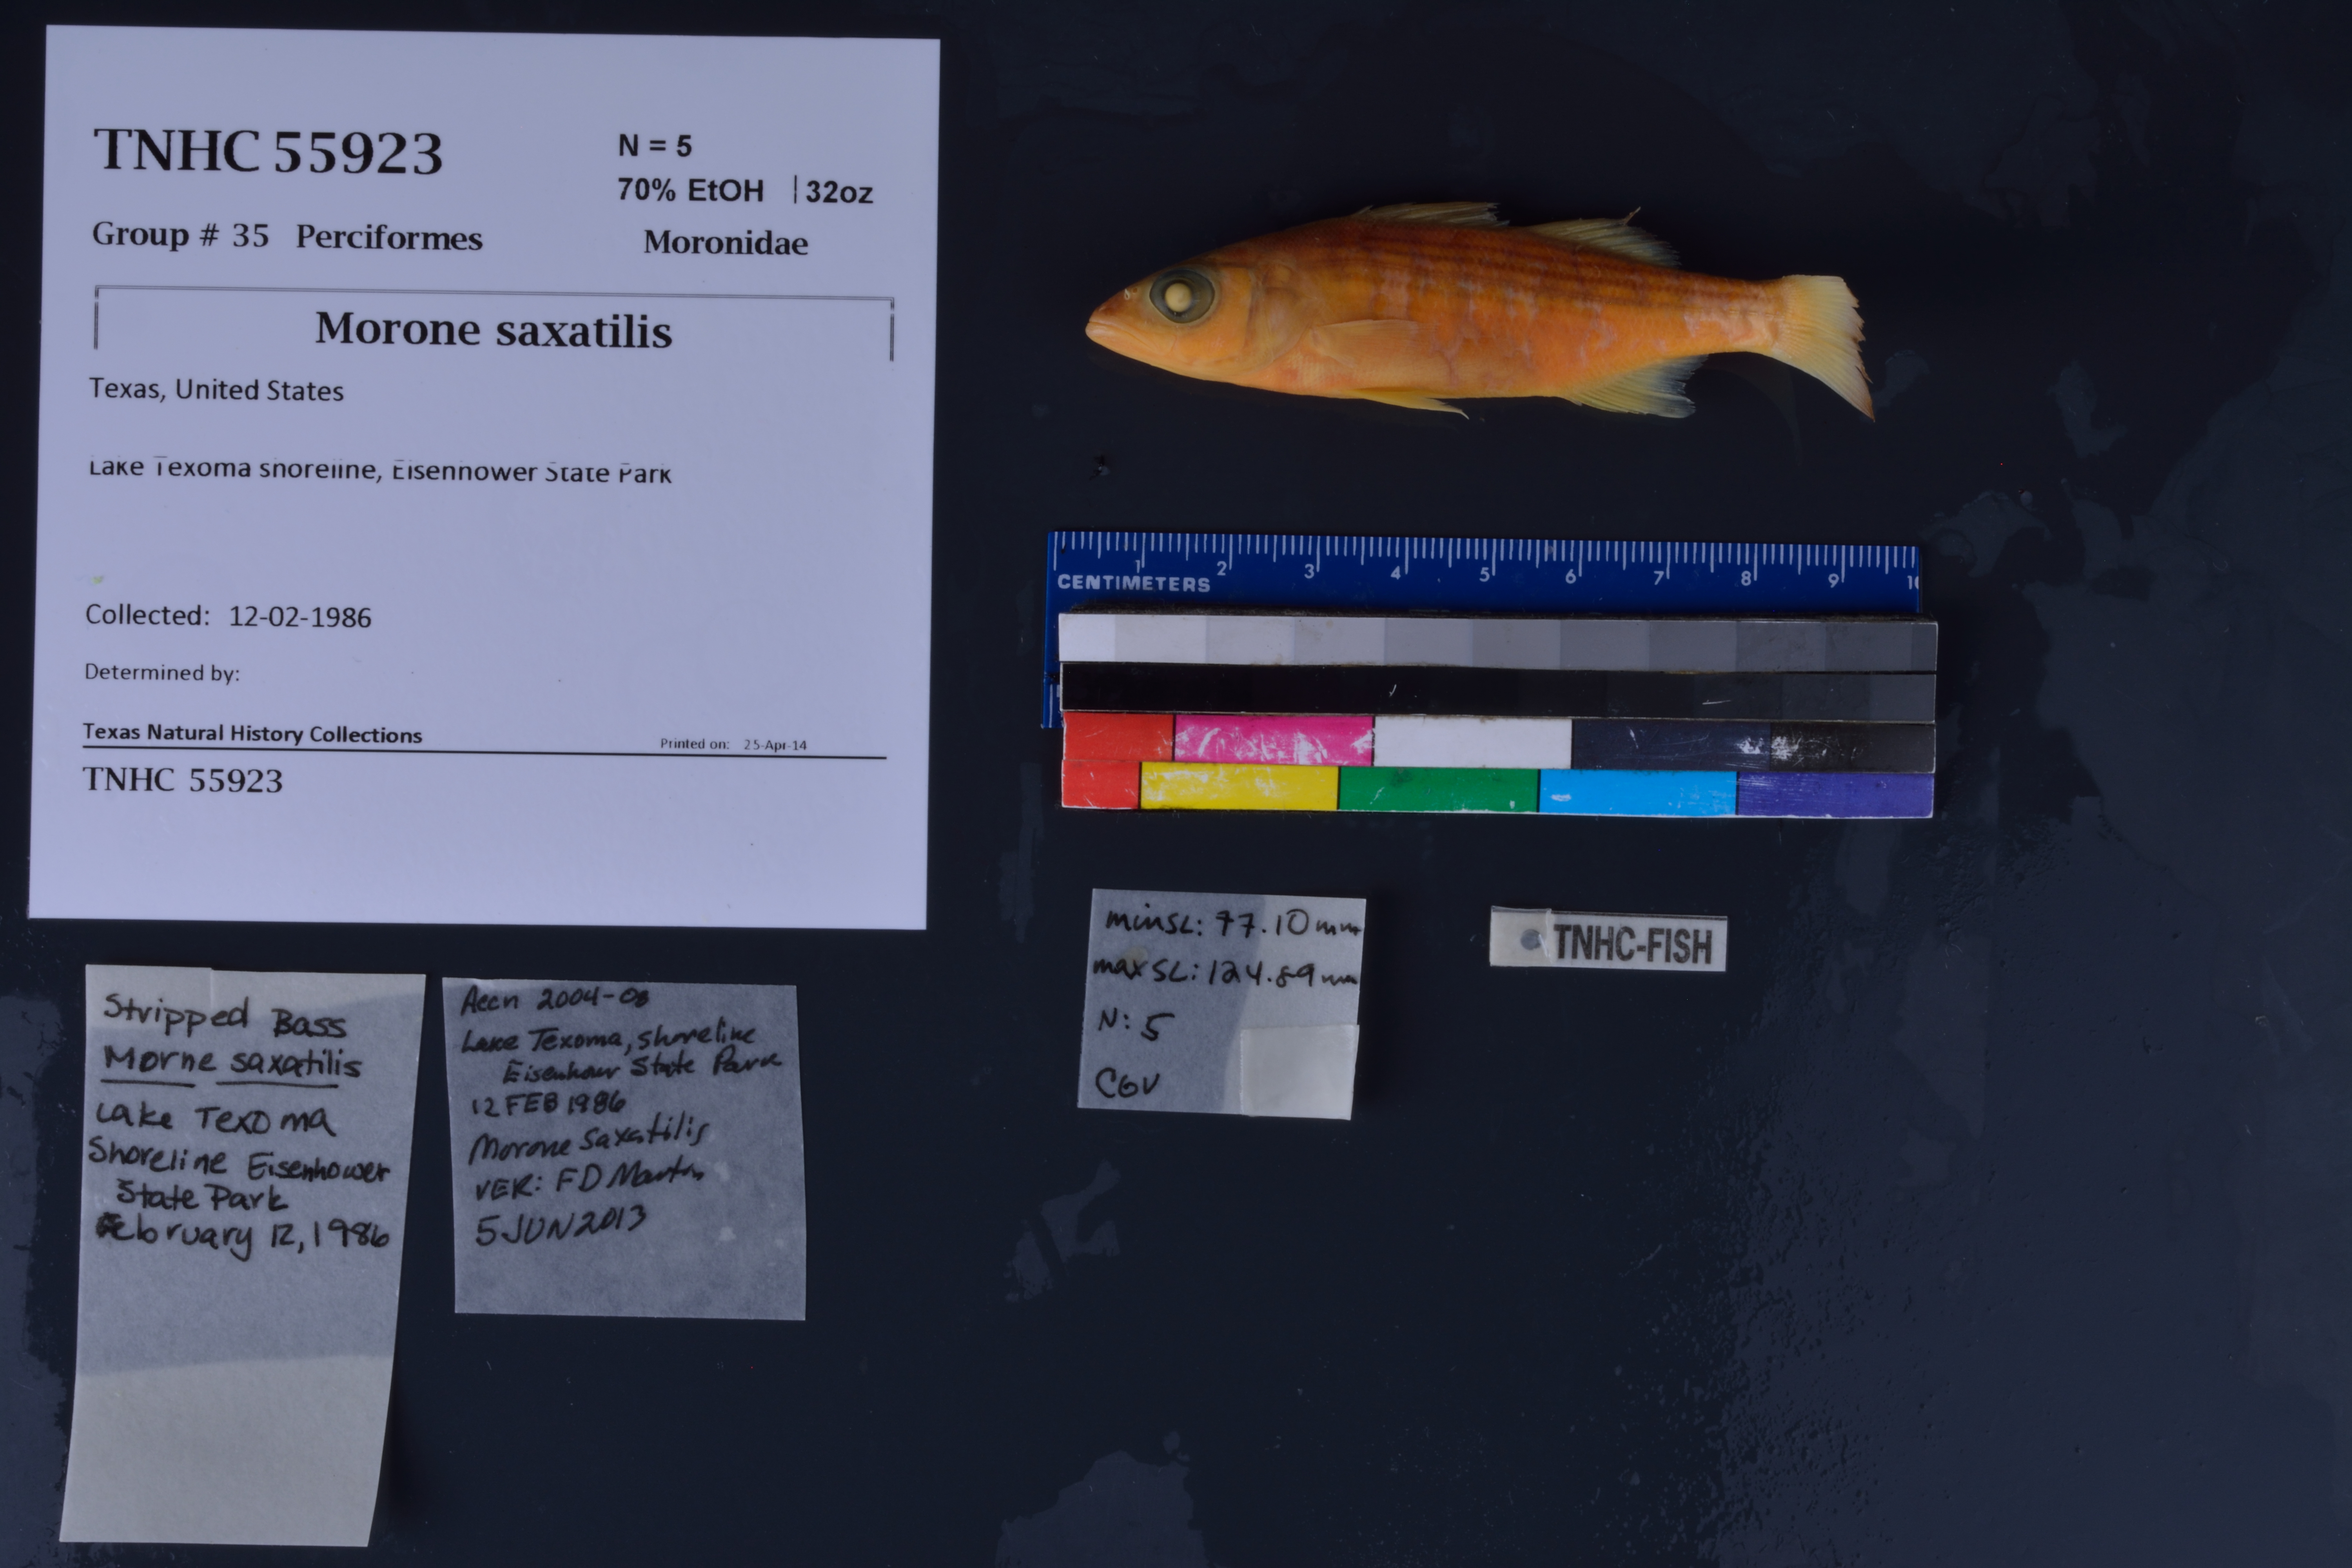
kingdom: Animalia
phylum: Chordata
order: Perciformes
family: Moronidae
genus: Morone
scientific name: Morone saxatilis
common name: Striped bass
